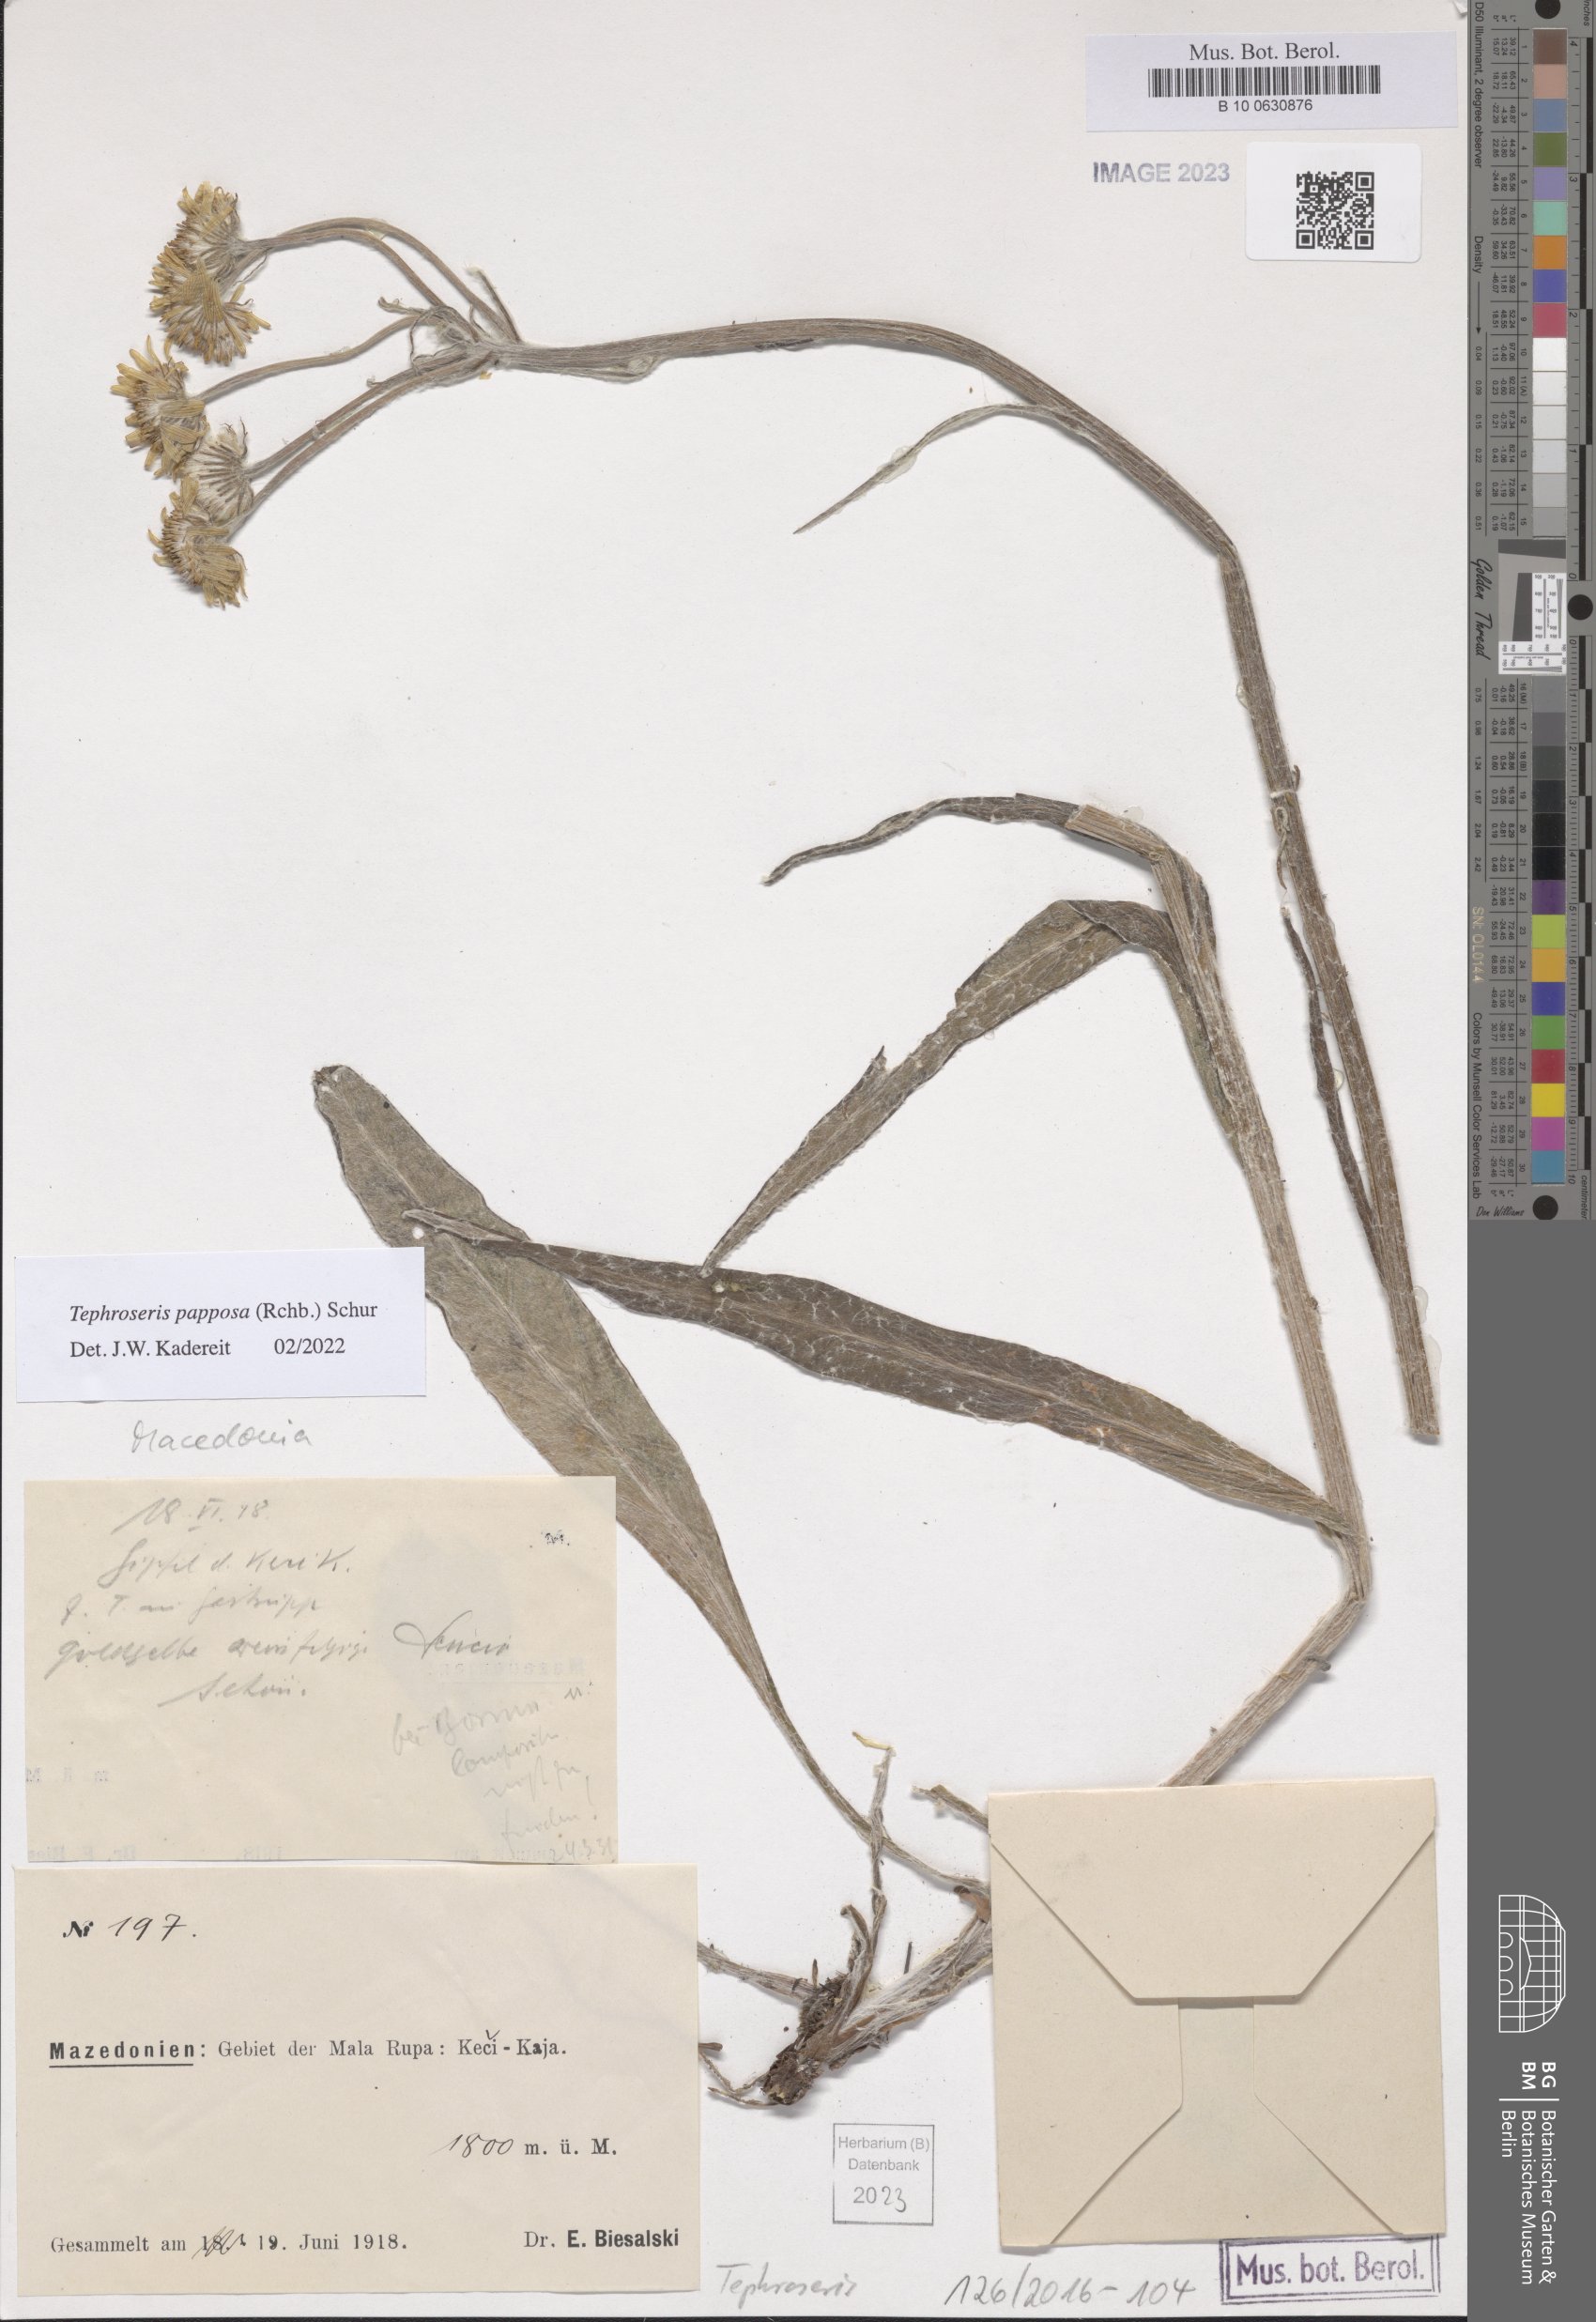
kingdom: Plantae
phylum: Tracheophyta
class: Magnoliopsida
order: Asterales
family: Asteraceae
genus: Tephroseris
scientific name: Tephroseris papposa
